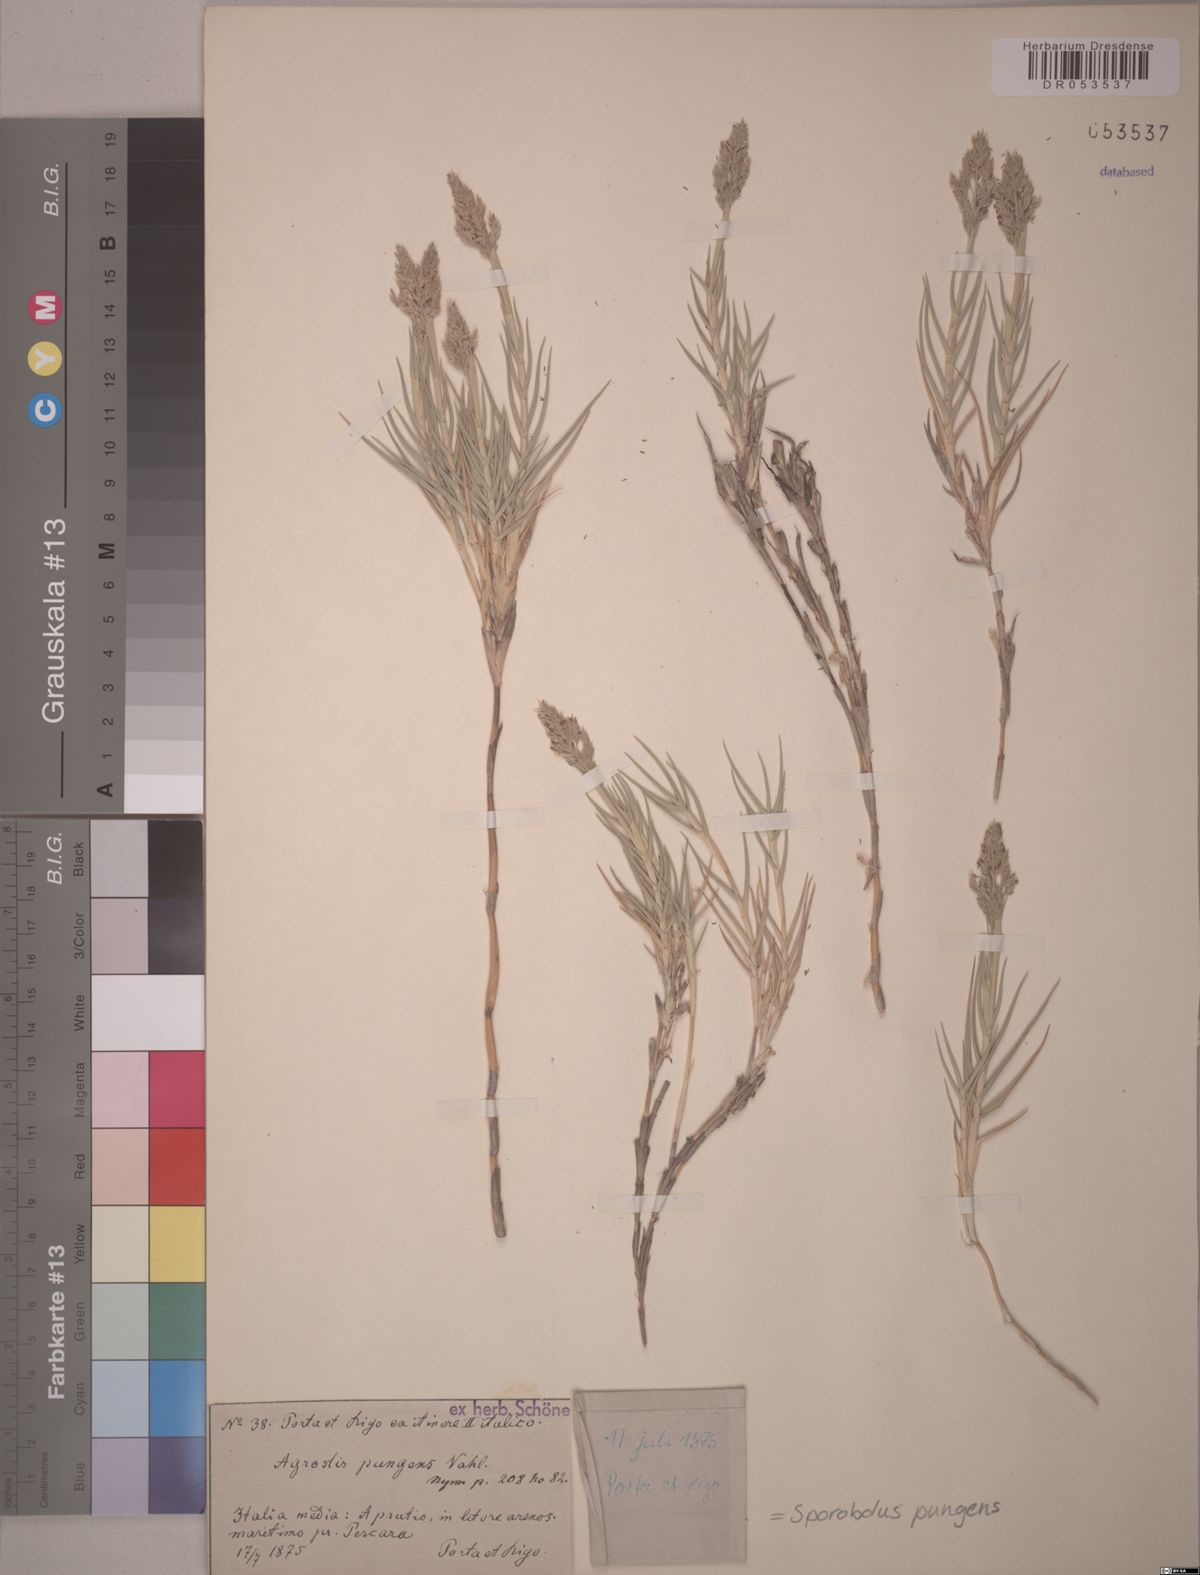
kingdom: Plantae
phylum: Tracheophyta
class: Liliopsida
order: Poales
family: Poaceae
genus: Sporobolus
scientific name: Sporobolus pungens
